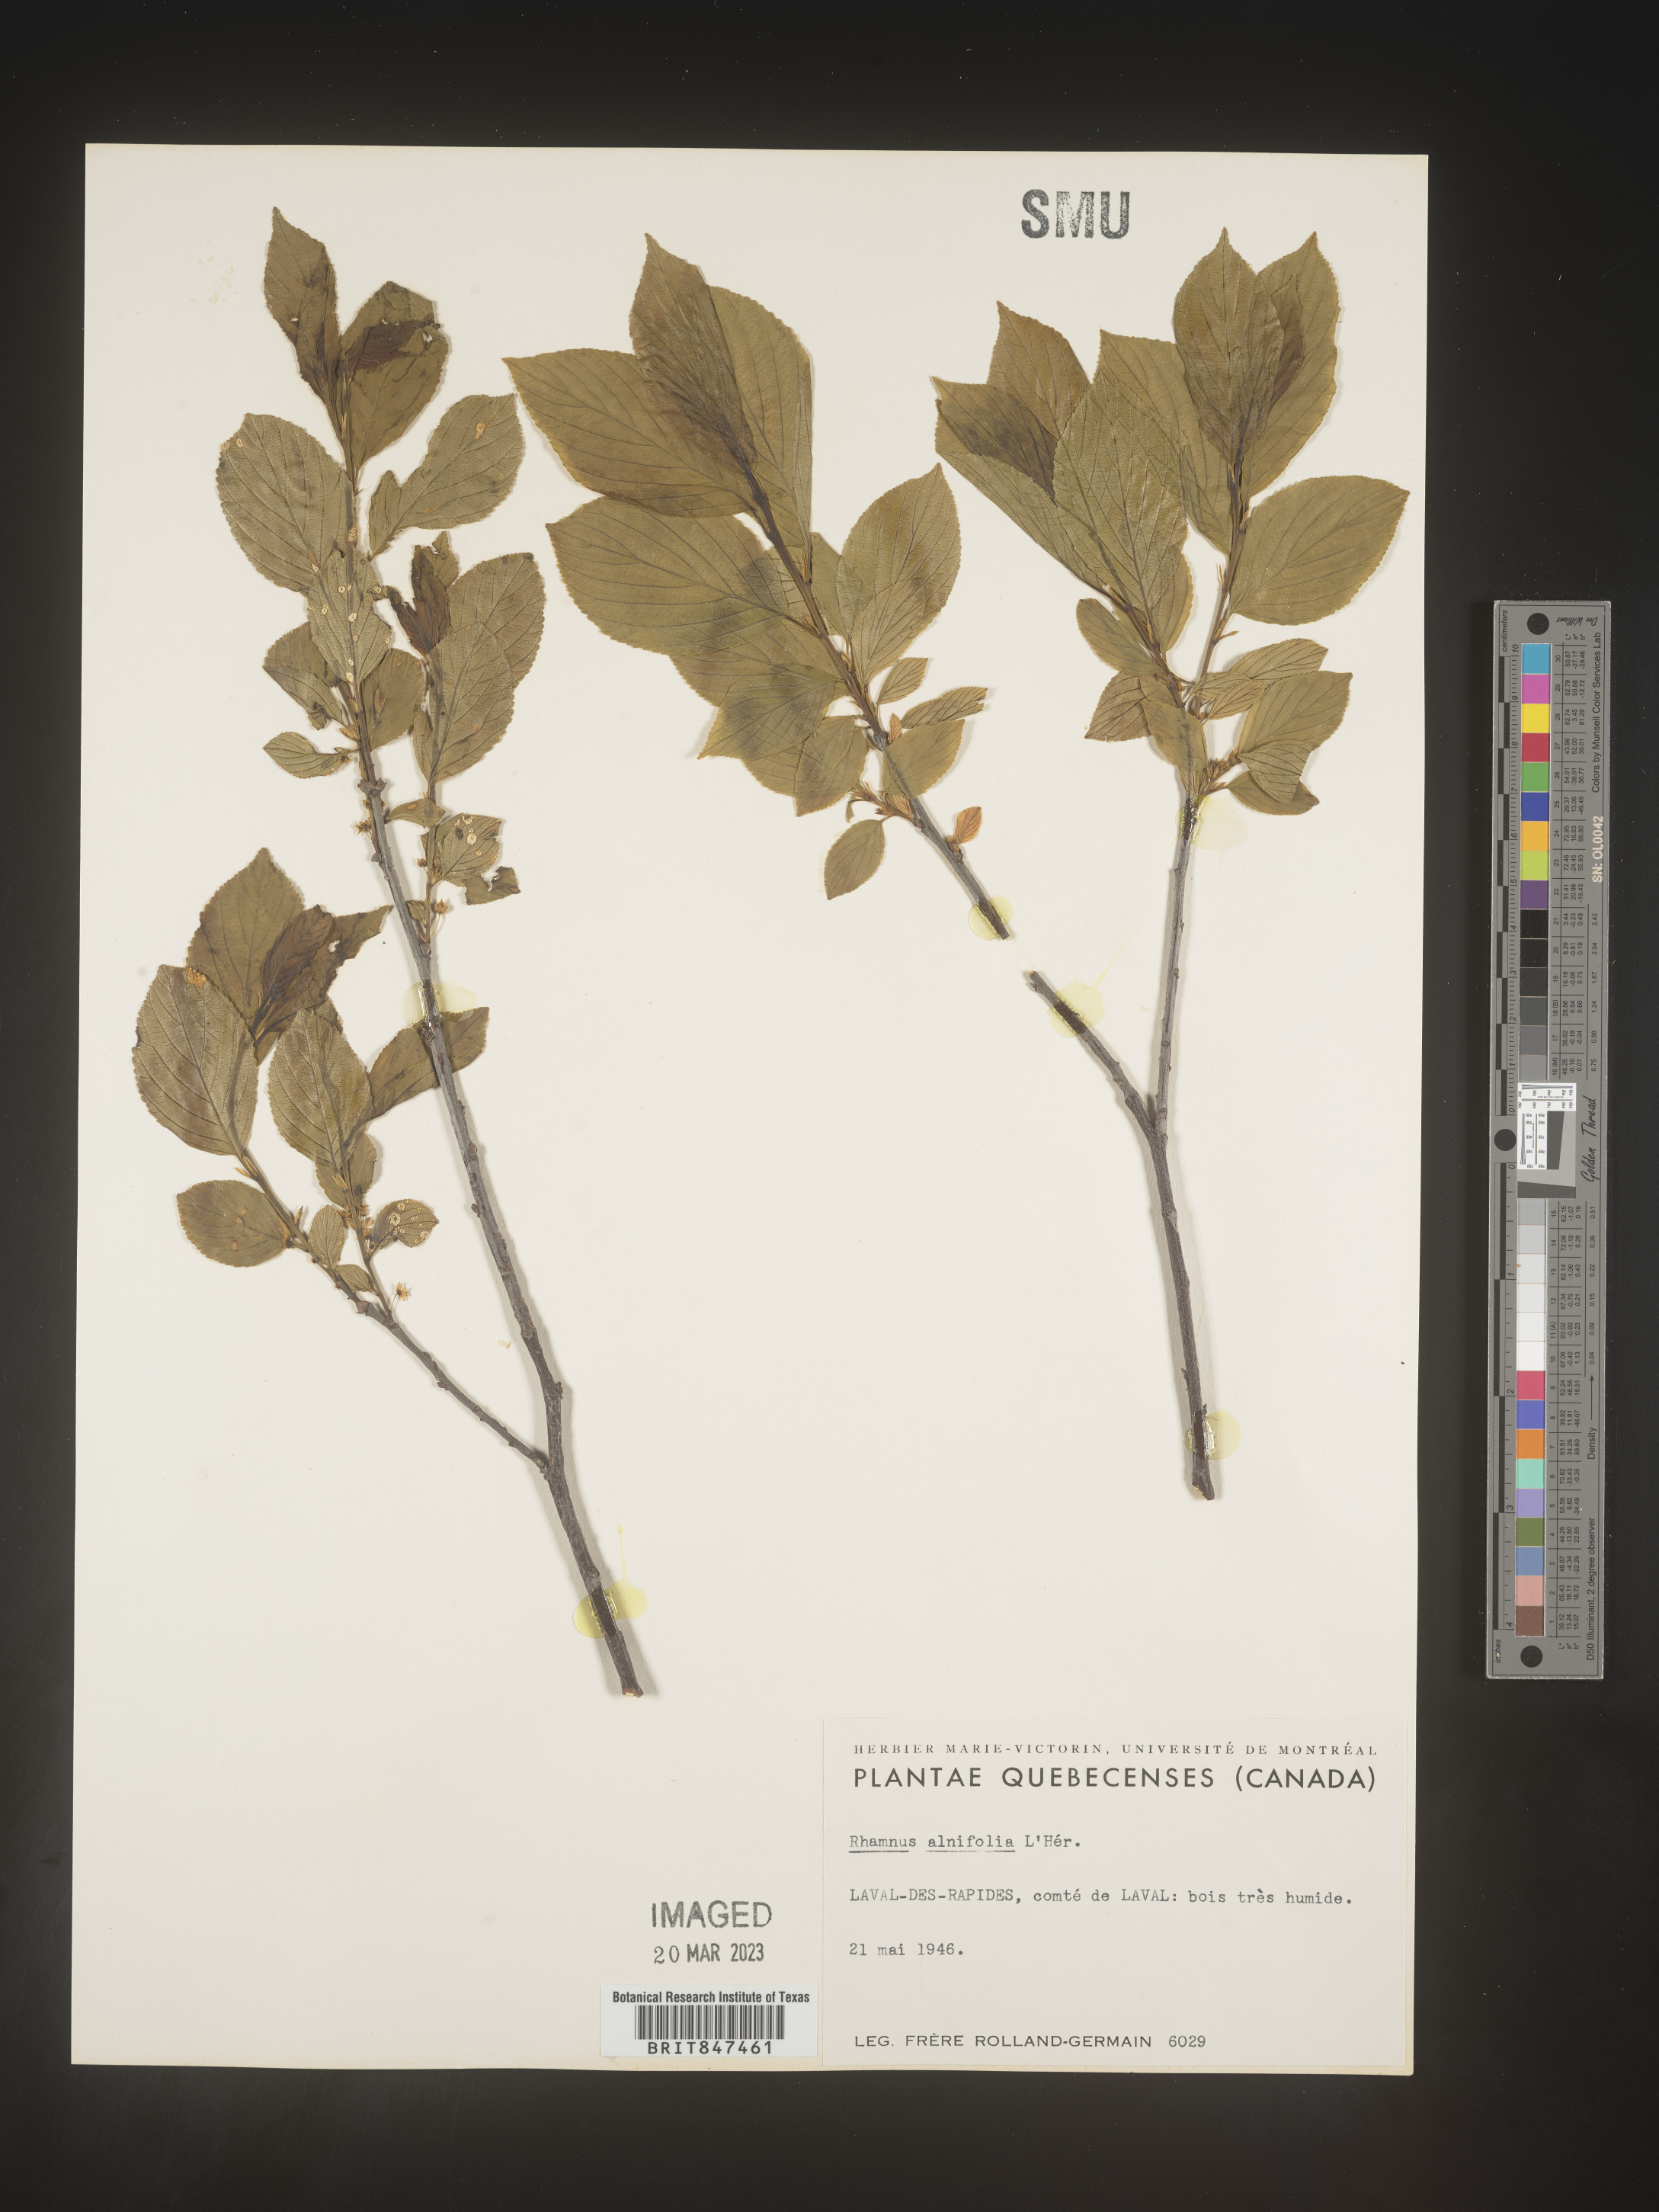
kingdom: Plantae
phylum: Tracheophyta
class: Magnoliopsida
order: Rosales
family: Rhamnaceae
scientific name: Rhamnaceae
